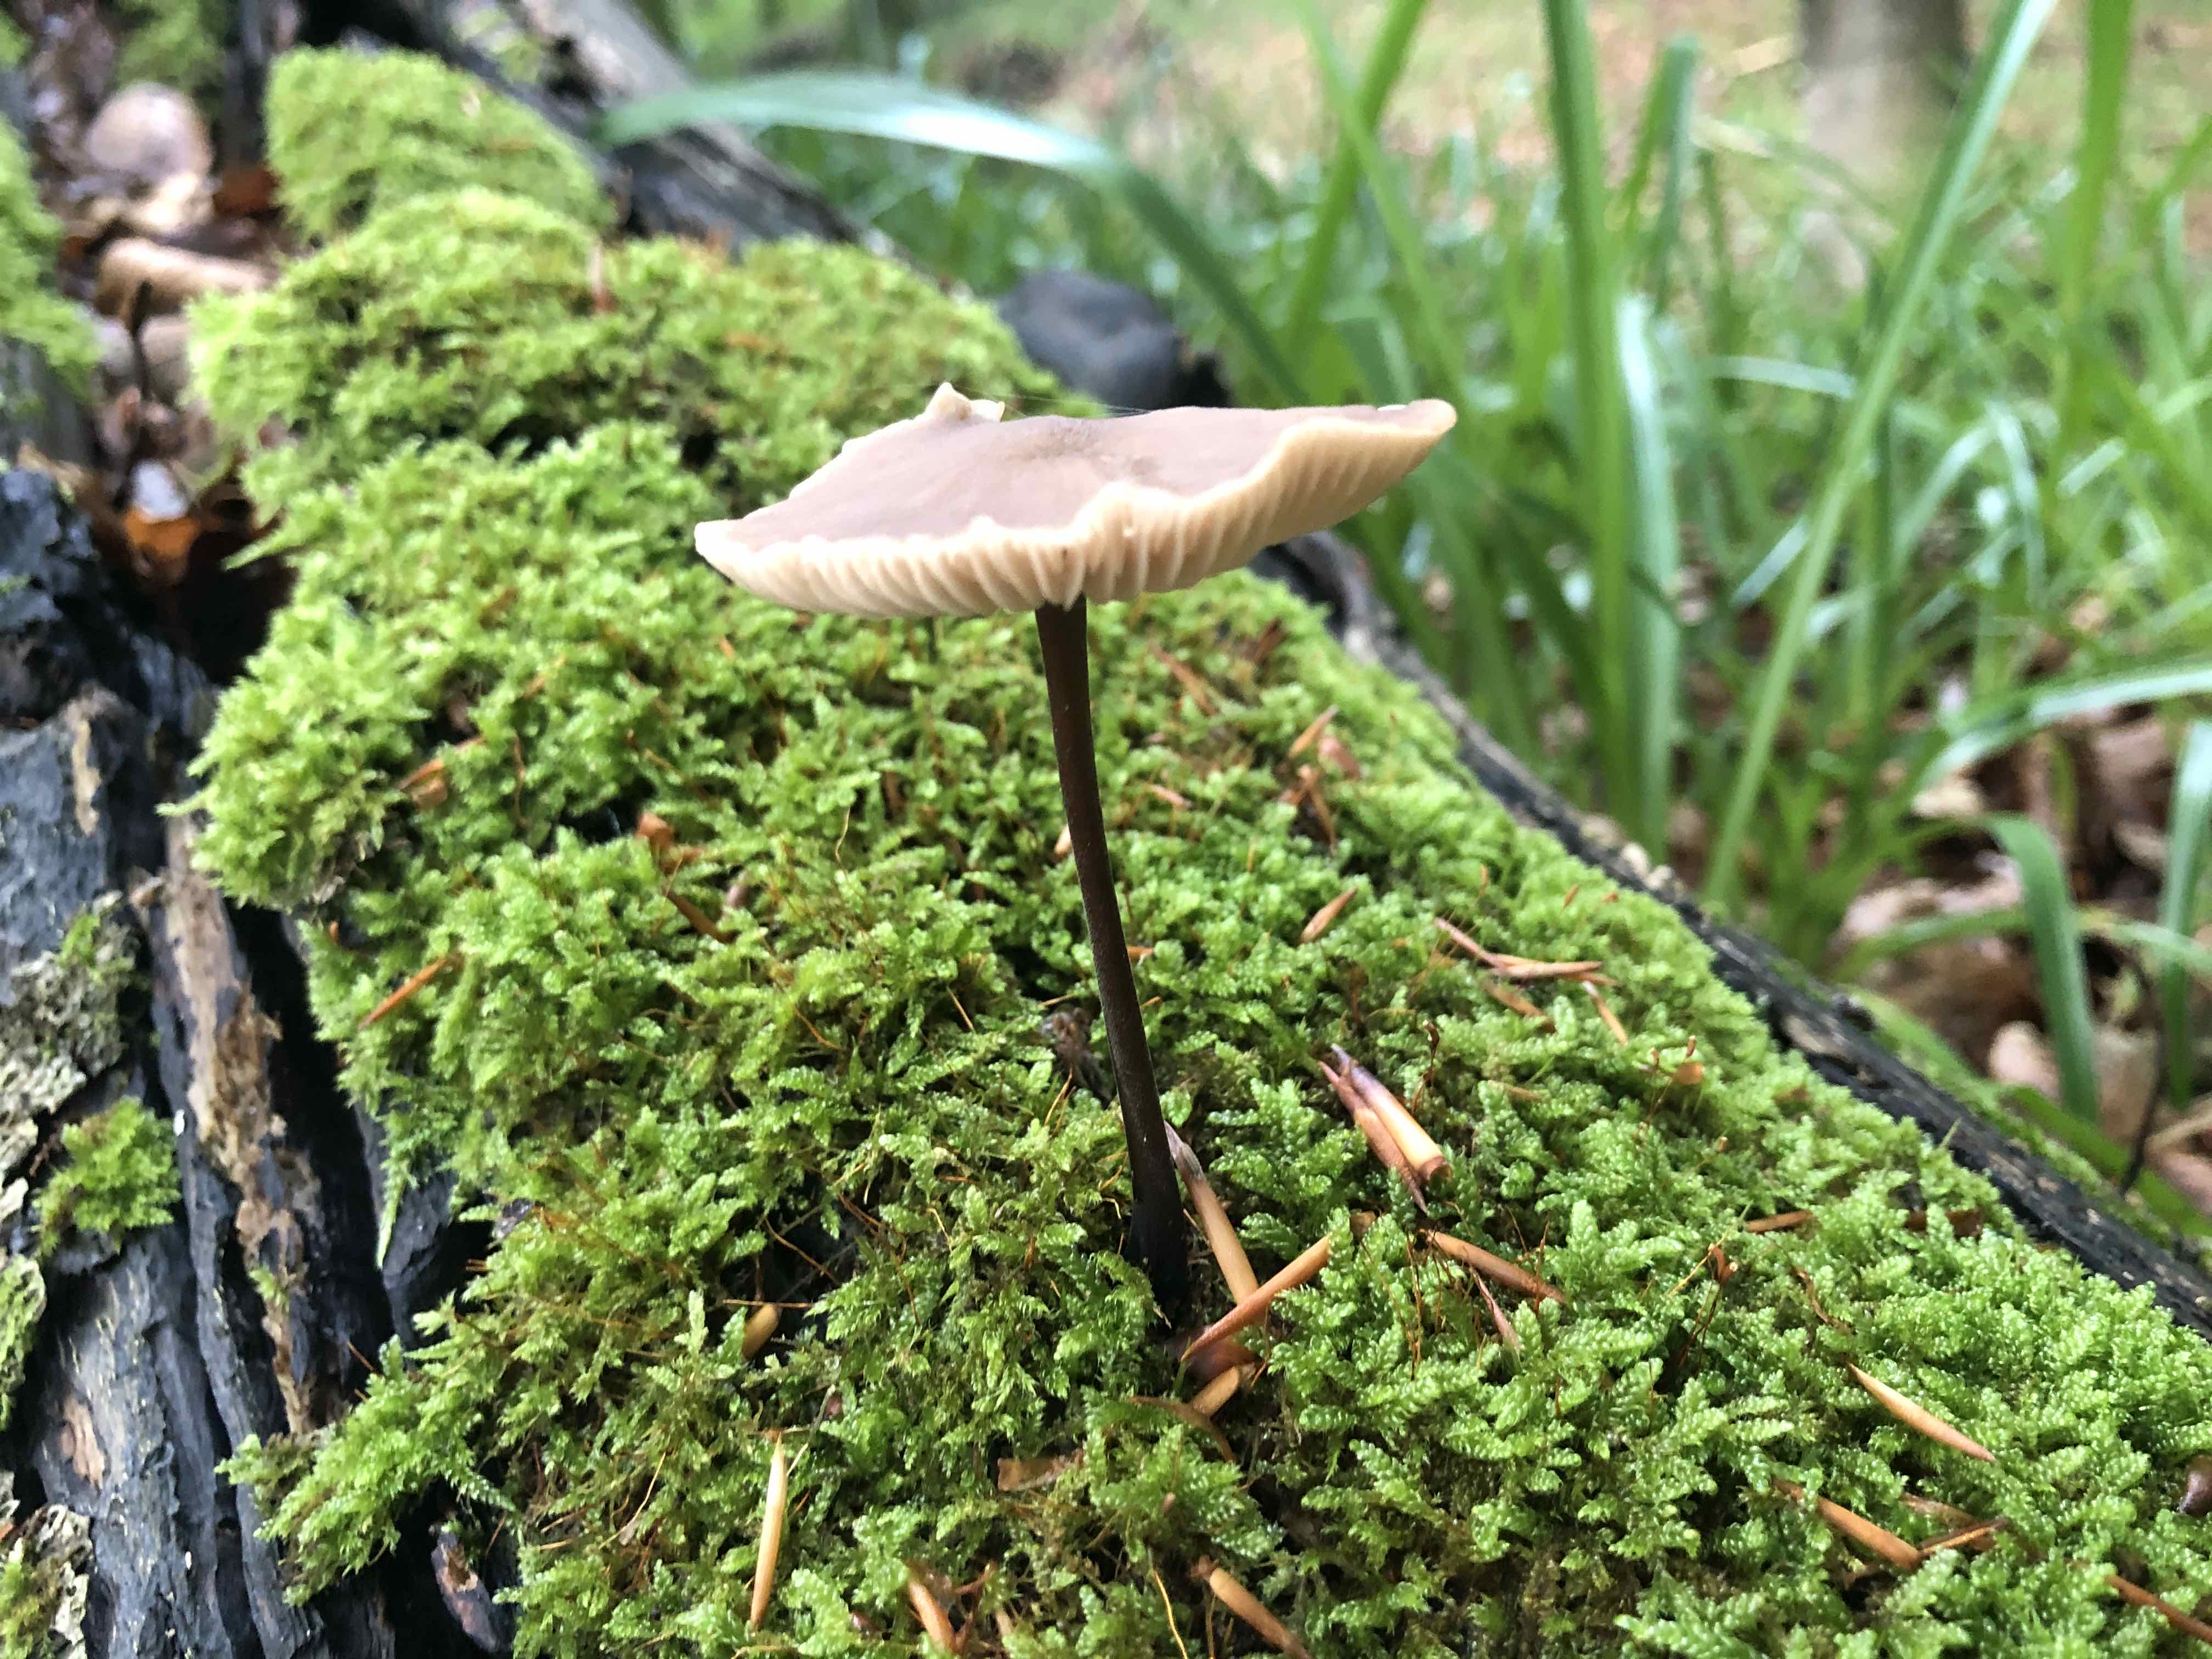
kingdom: Fungi
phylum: Basidiomycota
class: Agaricomycetes
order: Agaricales
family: Omphalotaceae
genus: Mycetinis
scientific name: Mycetinis alliaceus
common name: stor løghat
